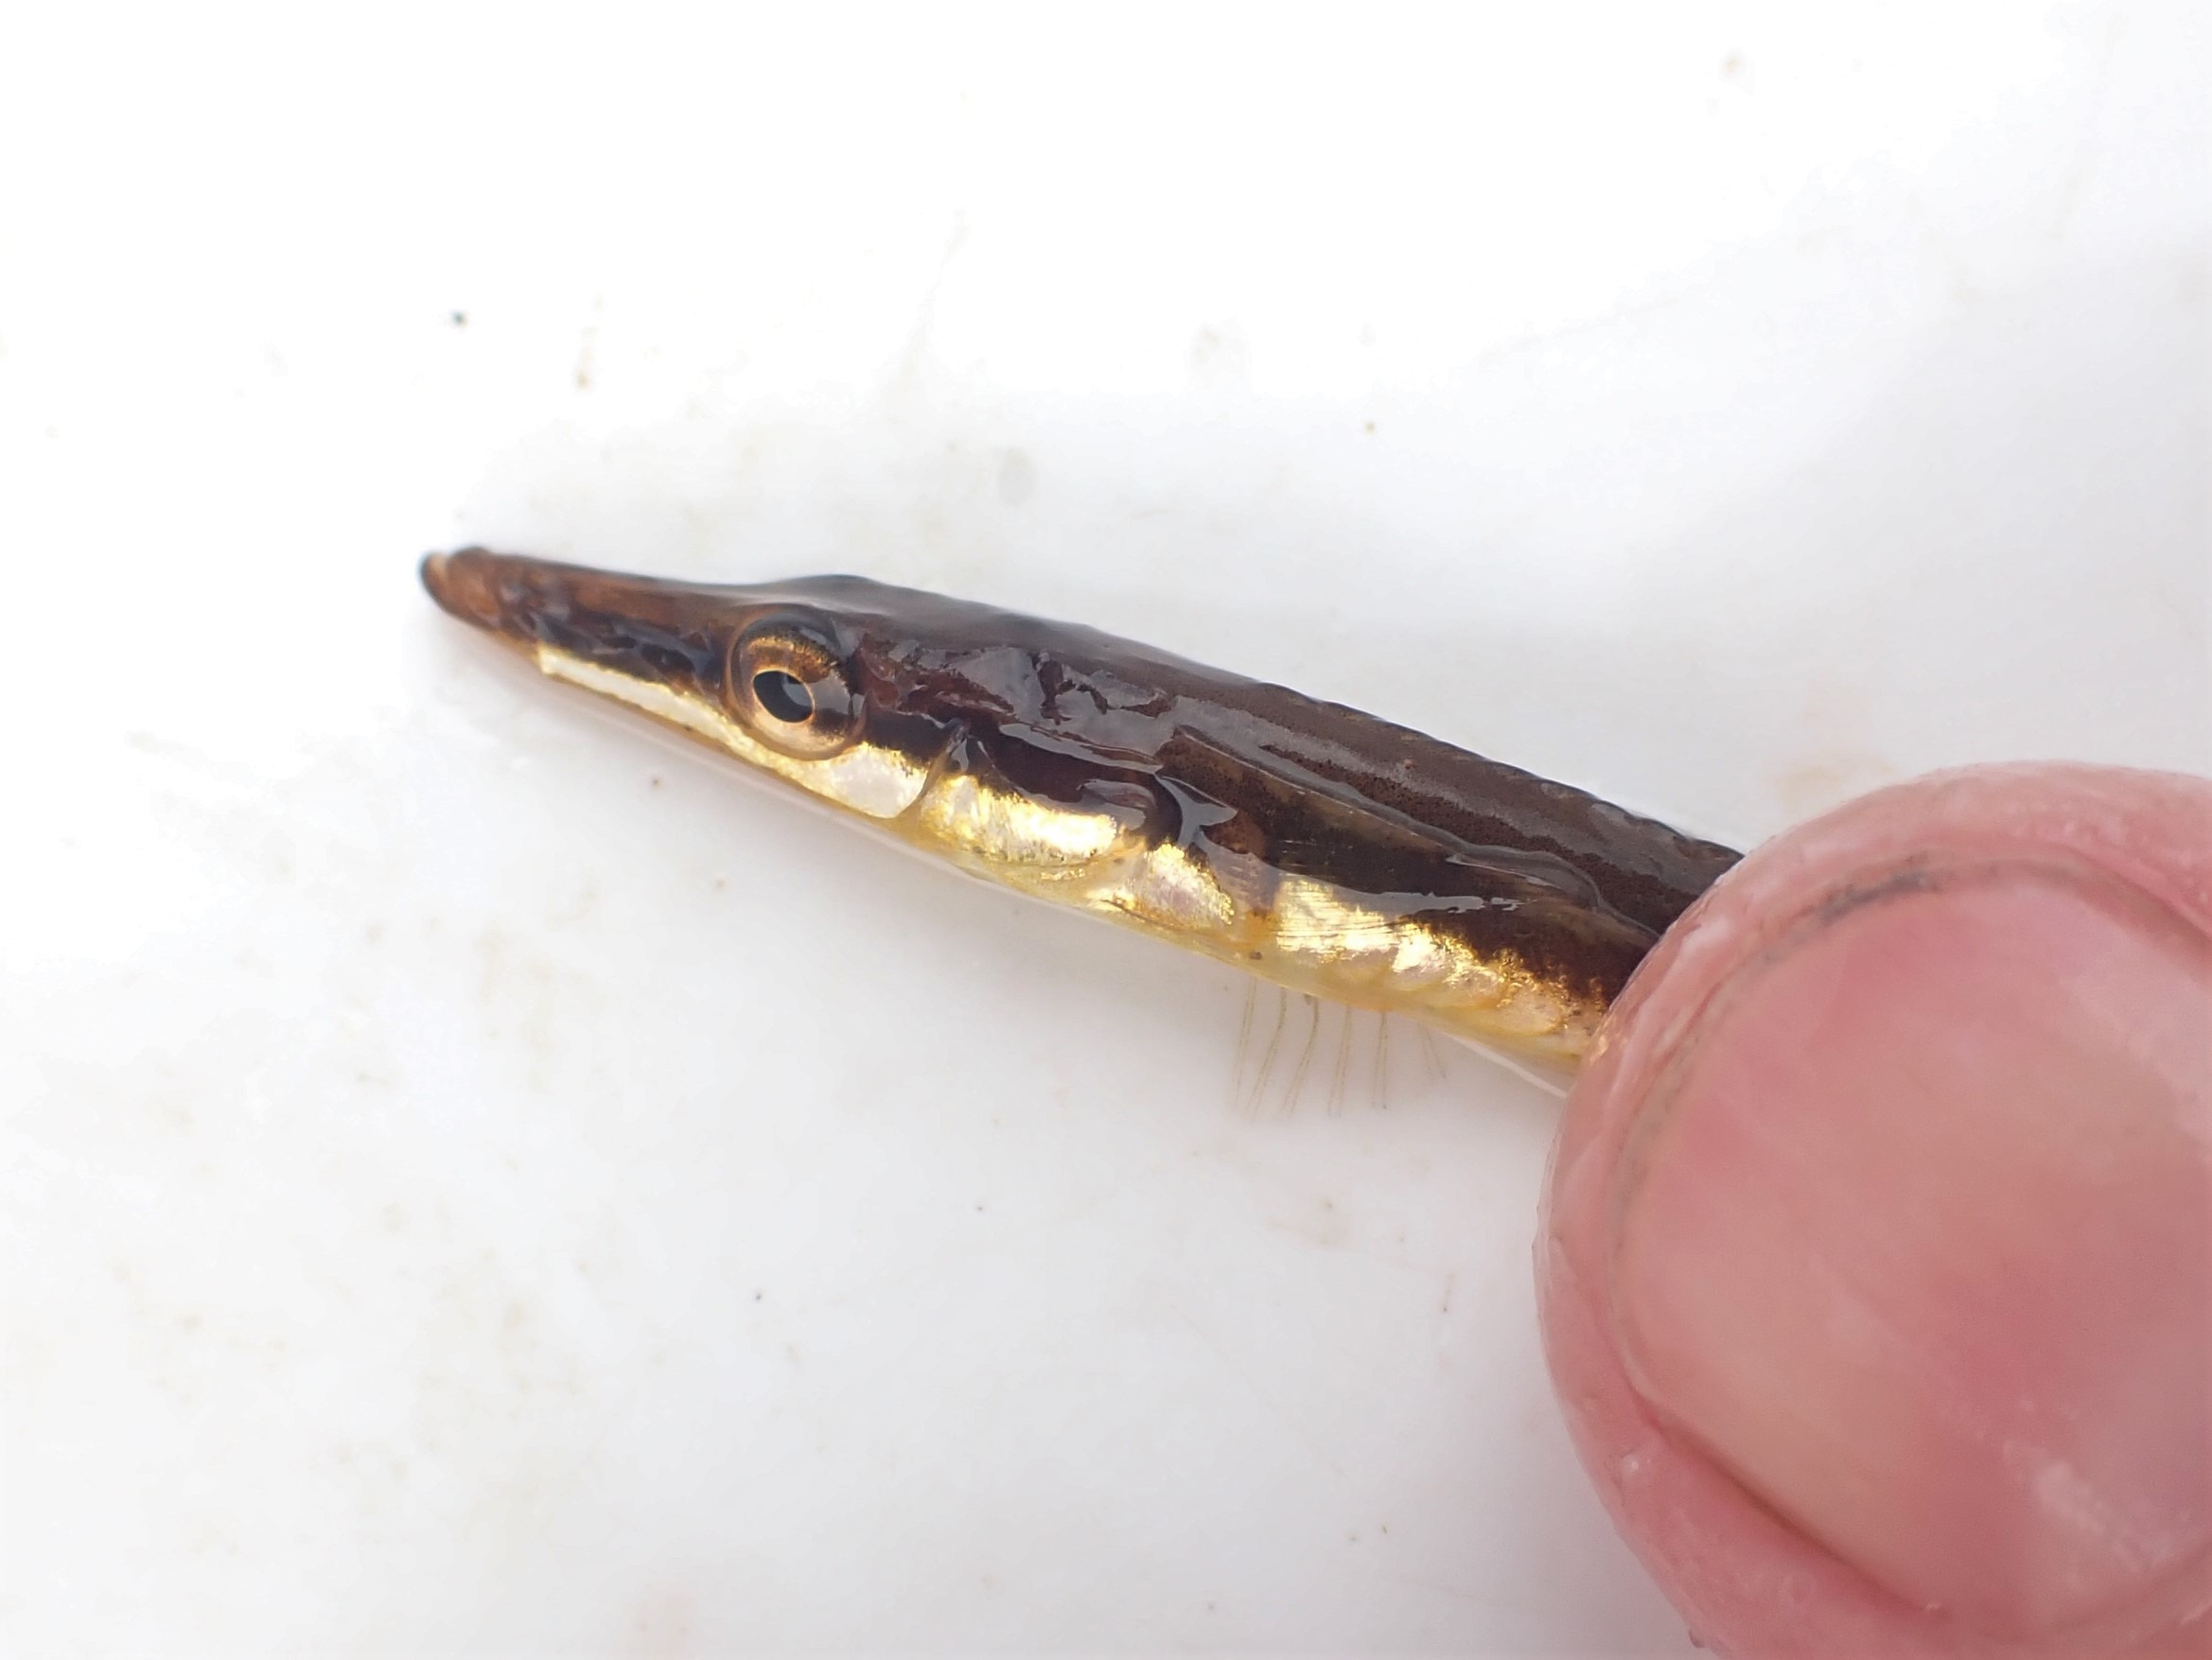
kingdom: Animalia
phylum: Chordata
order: Gasterosteiformes
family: Gasterosteidae
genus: Spinachia
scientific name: Spinachia spinachia
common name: Tangsnarre
